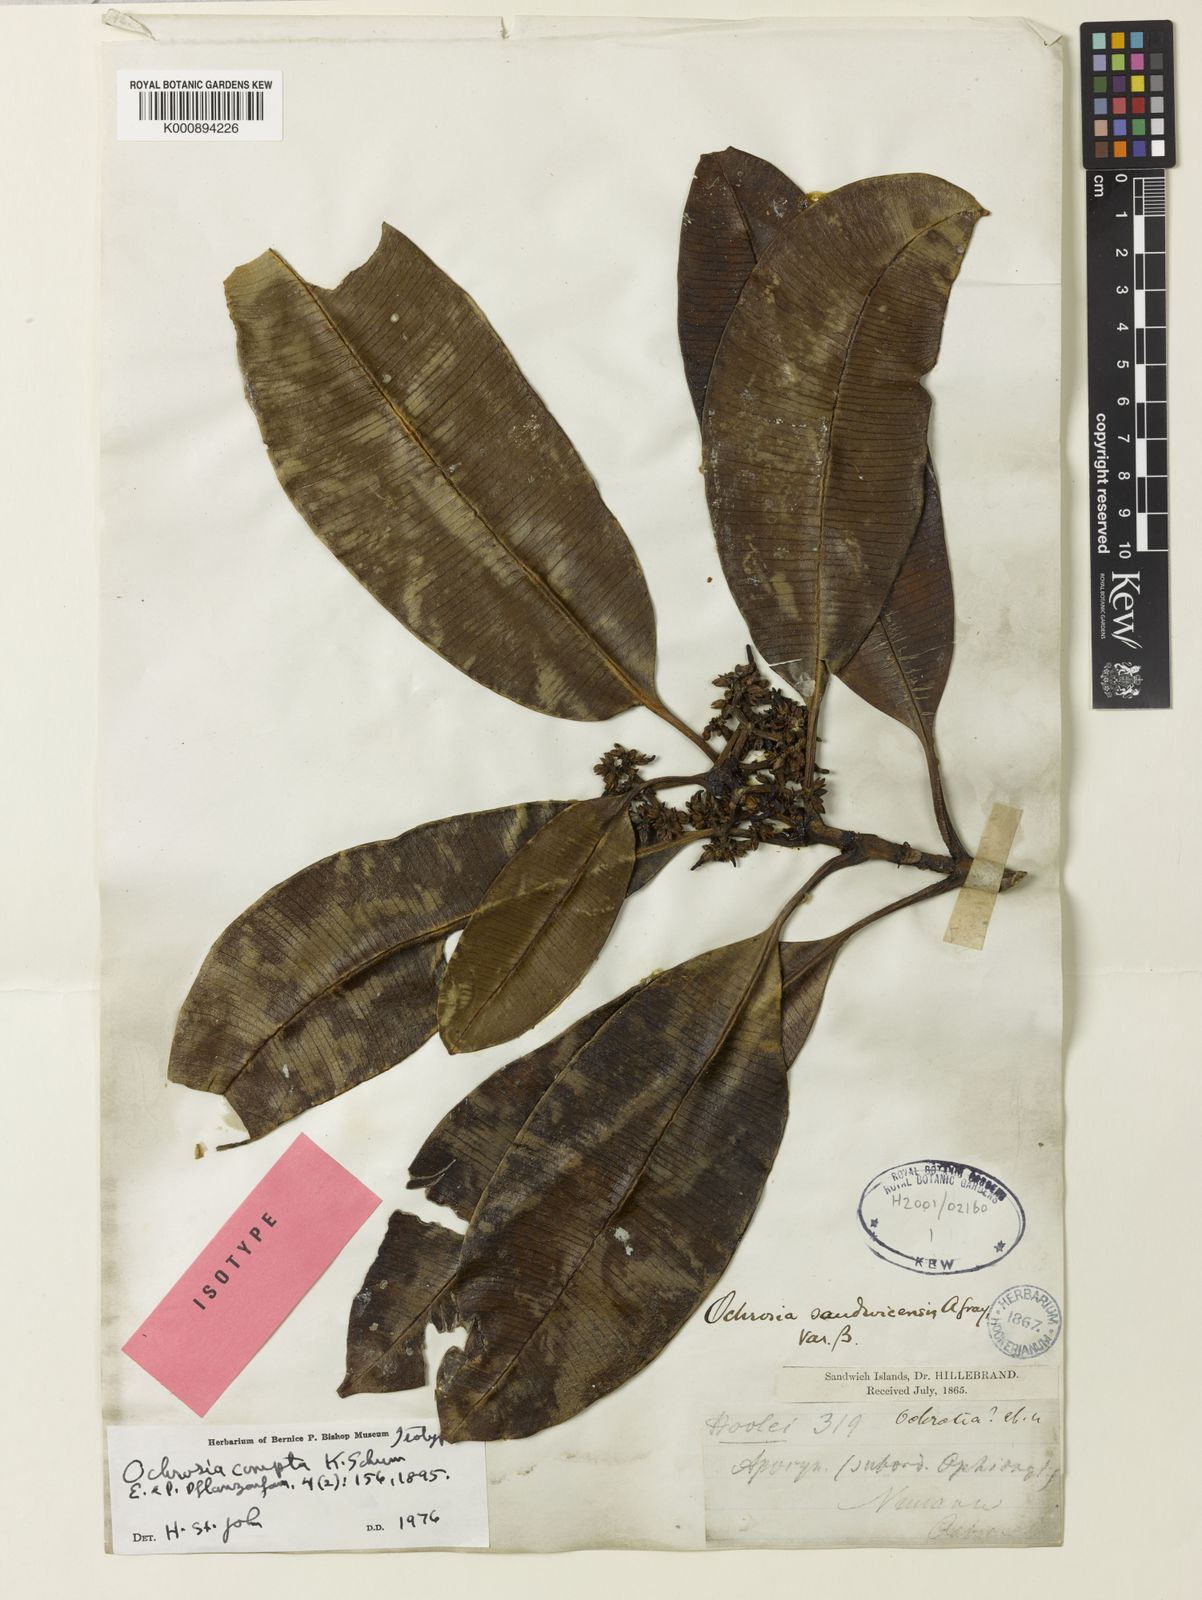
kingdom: Plantae
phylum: Tracheophyta
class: Magnoliopsida
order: Gentianales
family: Apocynaceae
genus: Ochrosia
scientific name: Ochrosia compta
